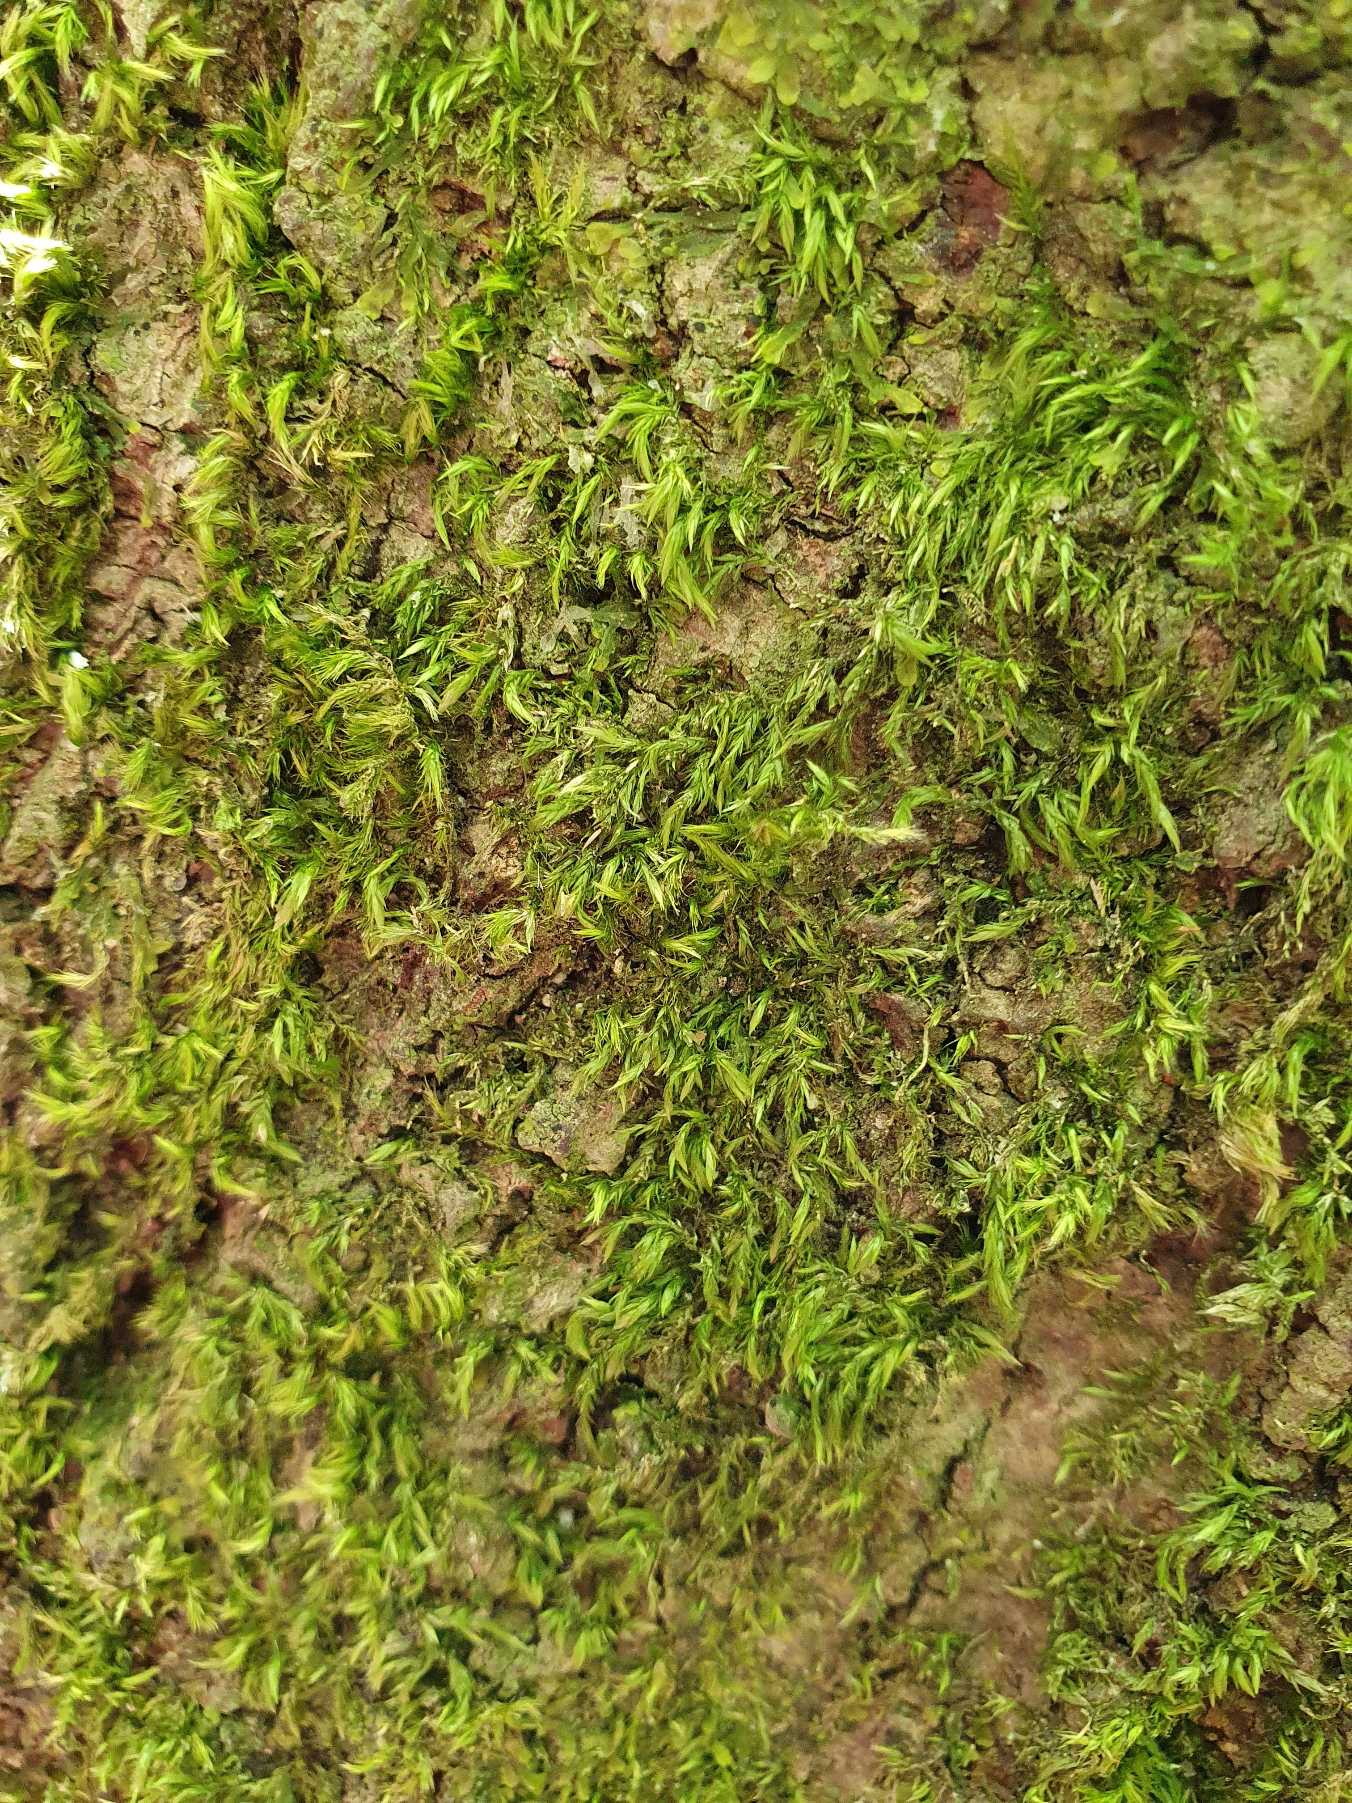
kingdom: Plantae
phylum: Bryophyta
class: Bryopsida
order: Hypnales
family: Brachytheciaceae
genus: Homalothecium
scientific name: Homalothecium sericeum
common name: Krybende silkemos
